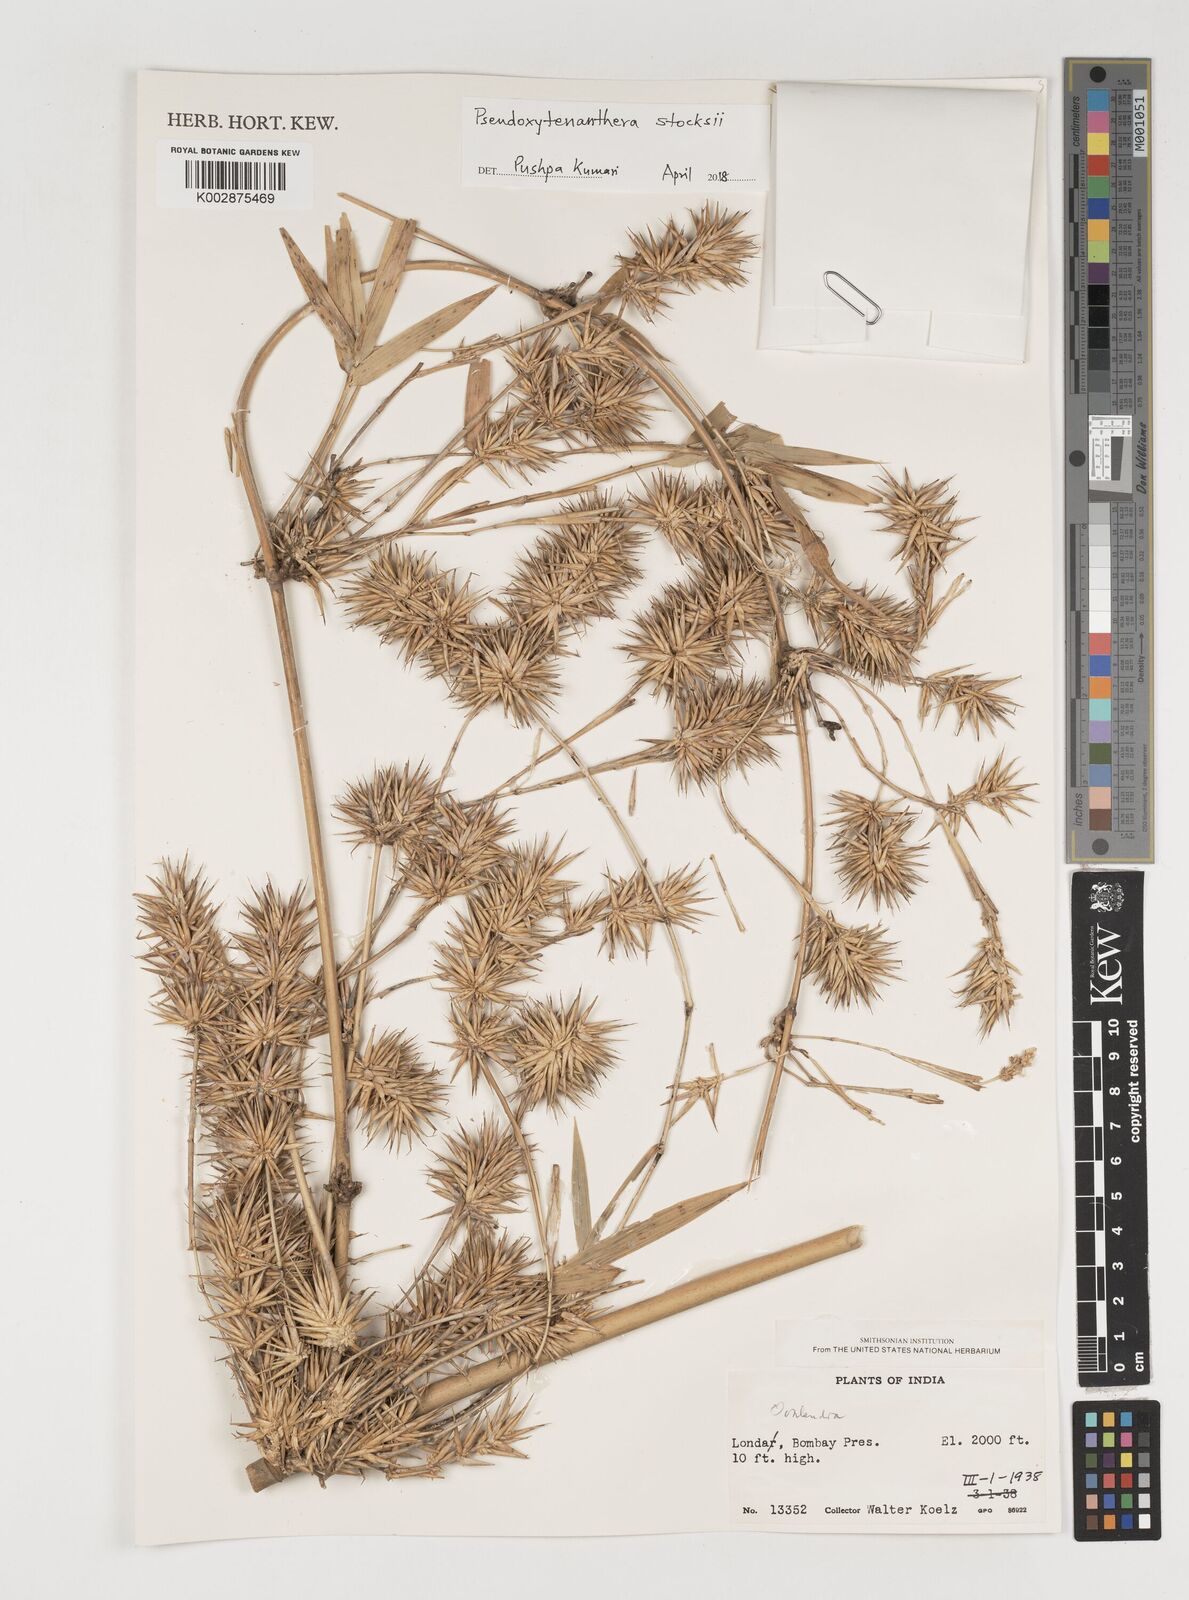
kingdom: Plantae
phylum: Tracheophyta
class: Liliopsida
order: Poales
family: Poaceae
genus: Pseudoxytenanthera
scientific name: Pseudoxytenanthera stocksii
